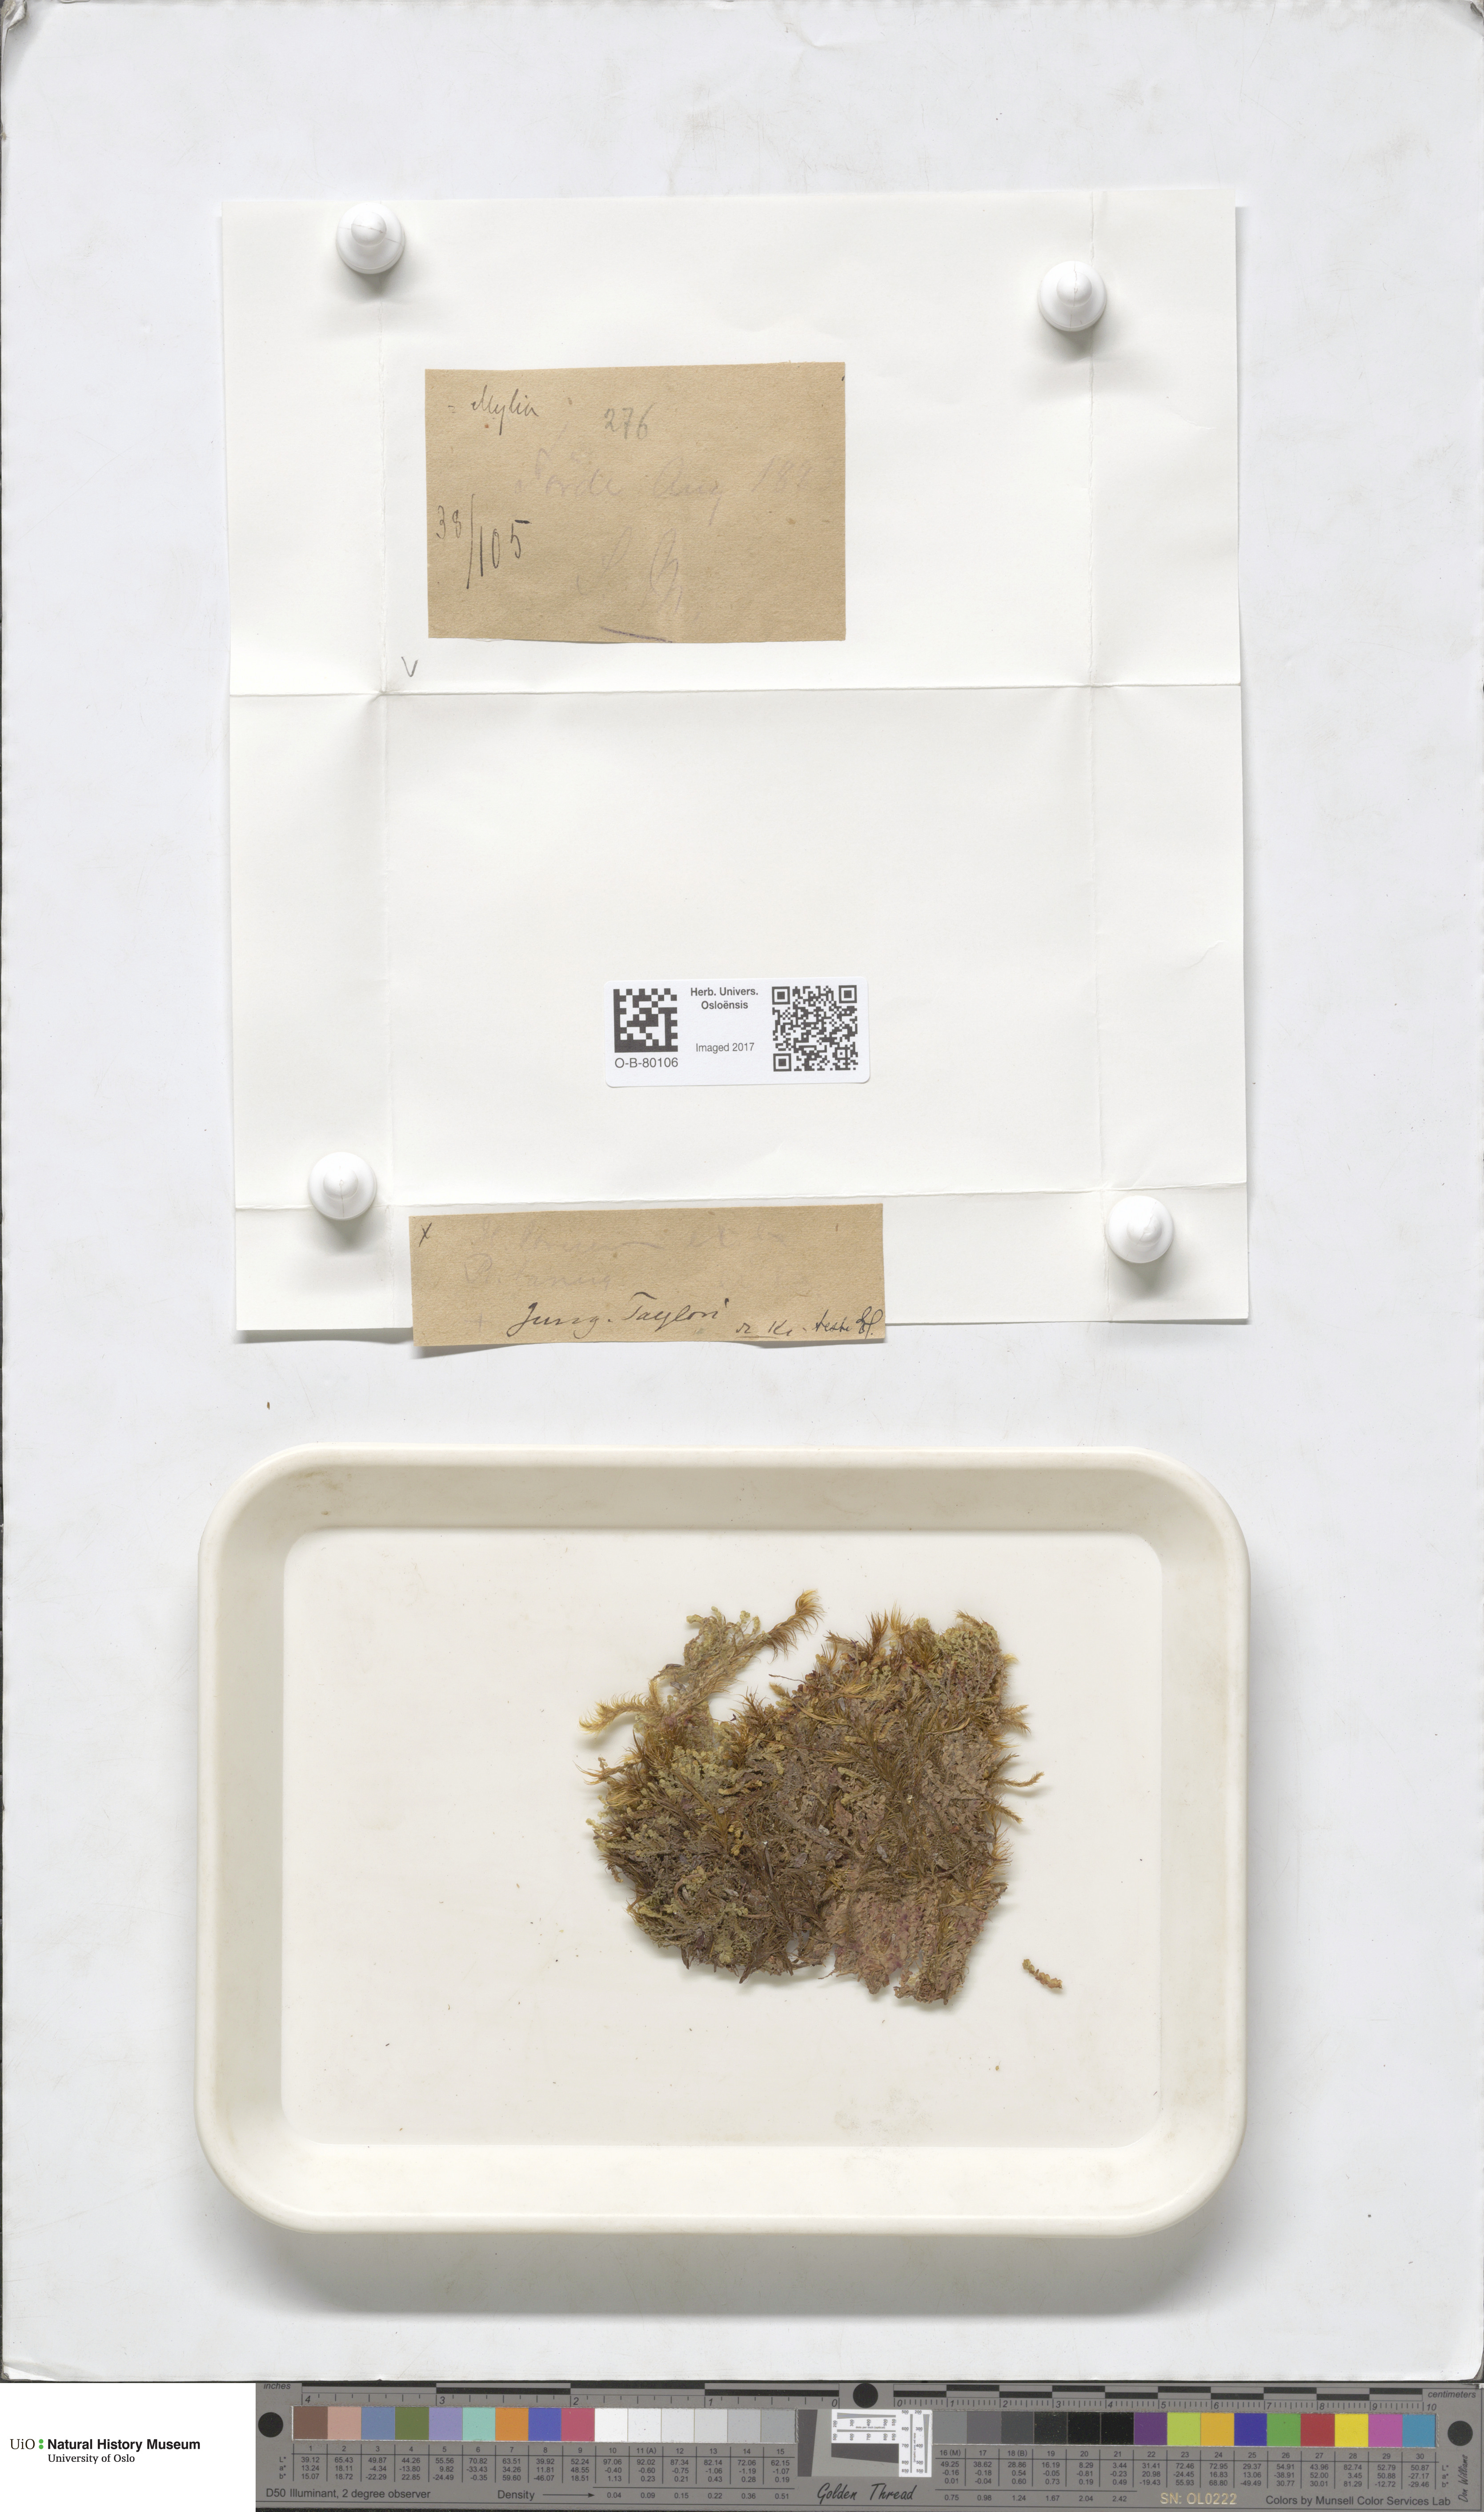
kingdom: Plantae
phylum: Marchantiophyta
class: Jungermanniopsida
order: Jungermanniales
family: Myliaceae
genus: Mylia
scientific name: Mylia taylorii
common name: Taylor s flapwort
